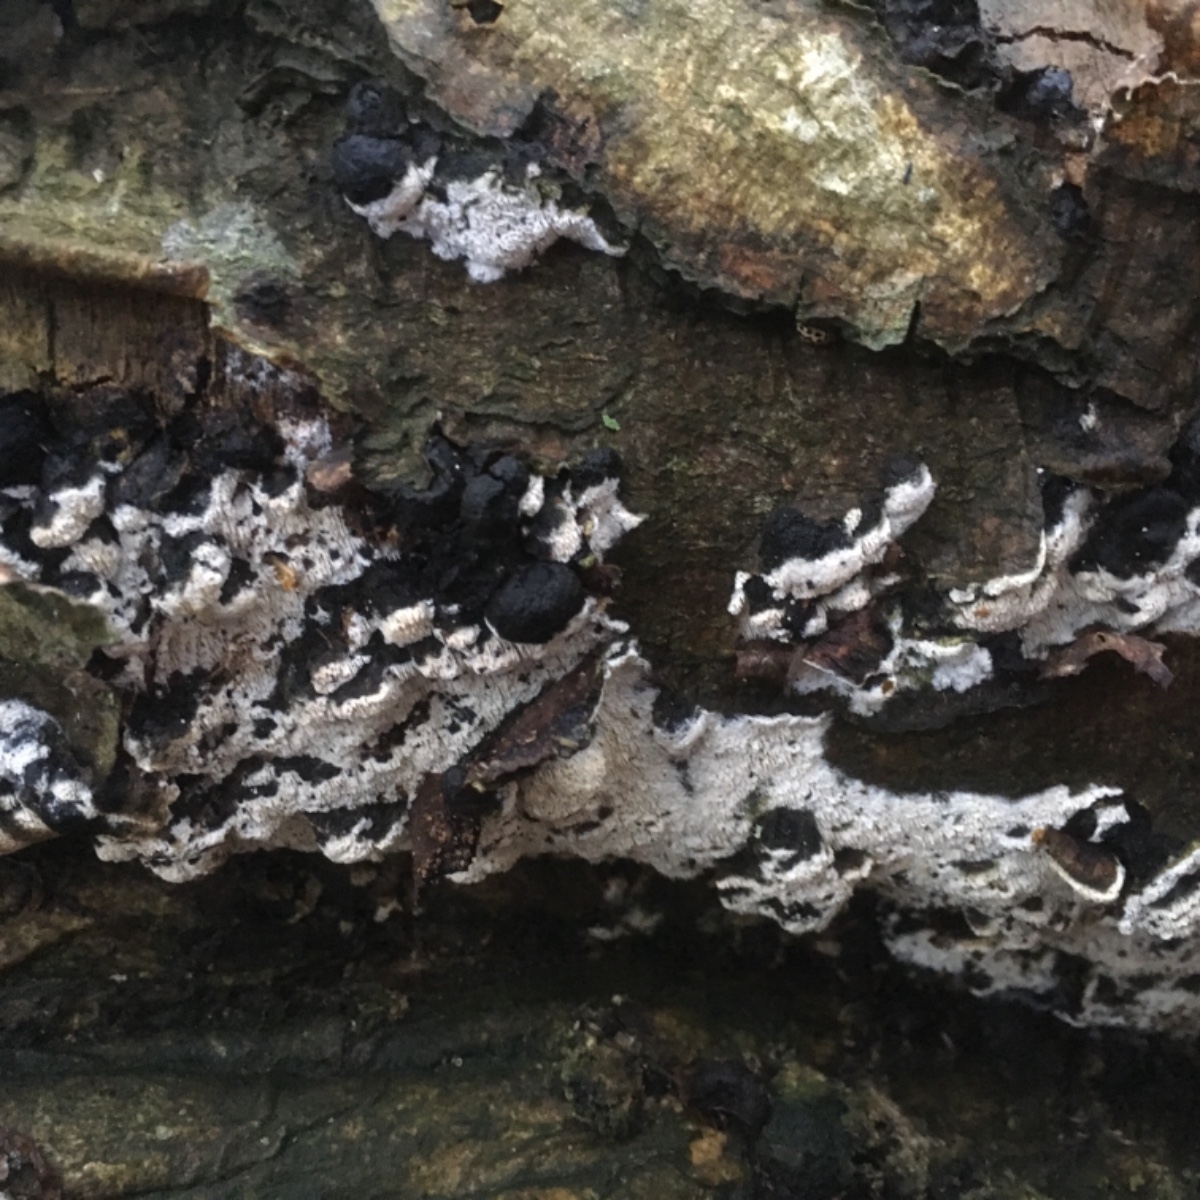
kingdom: Fungi
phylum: Basidiomycota
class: Agaricomycetes
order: Hymenochaetales
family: Schizoporaceae
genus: Schizopora
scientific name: Schizopora paradoxa
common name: hvid tandsvamp
